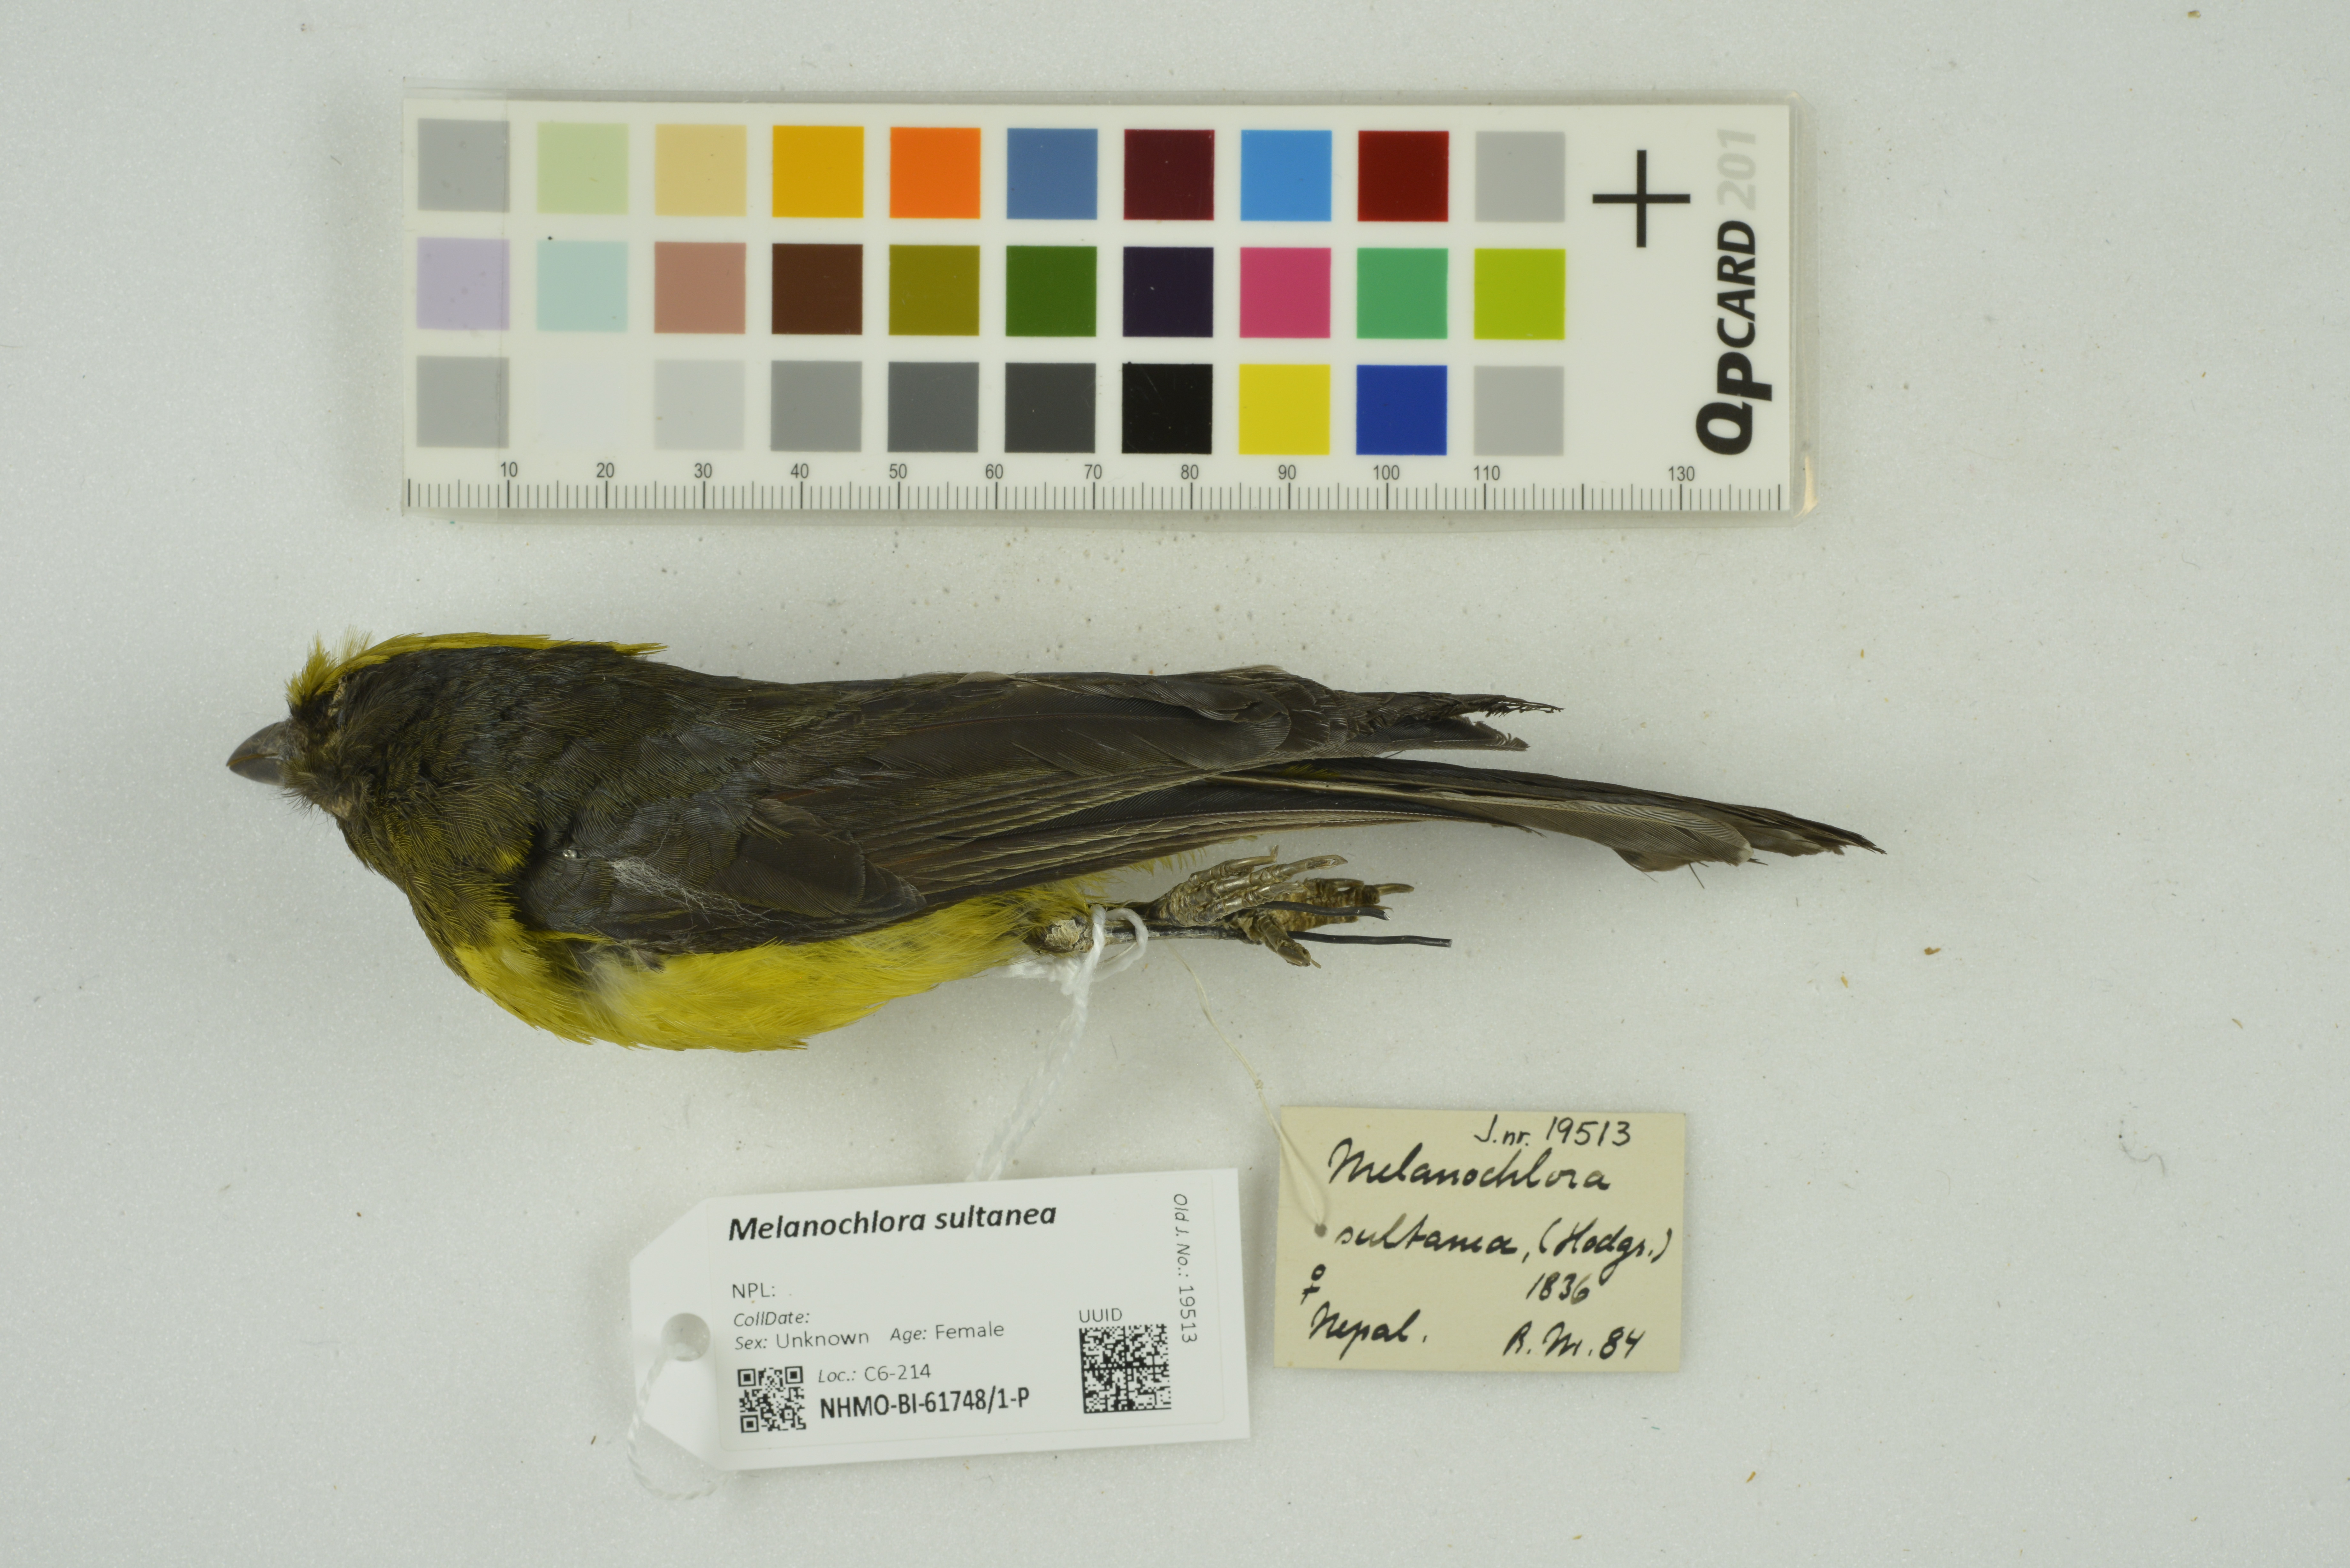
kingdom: Animalia
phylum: Chordata
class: Aves
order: Passeriformes
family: Paridae
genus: Melanochlora
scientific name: Melanochlora sultanea
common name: Sultan tit
